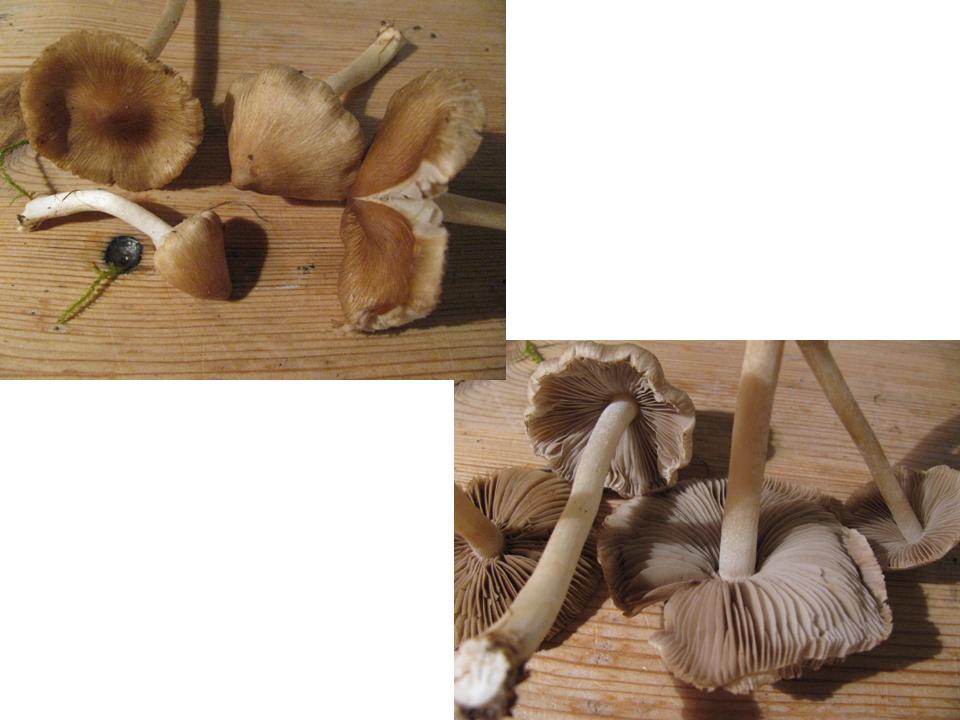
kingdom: Fungi
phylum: Basidiomycota
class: Agaricomycetes
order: Agaricales
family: Inocybaceae
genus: Inocybe
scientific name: Inocybe
